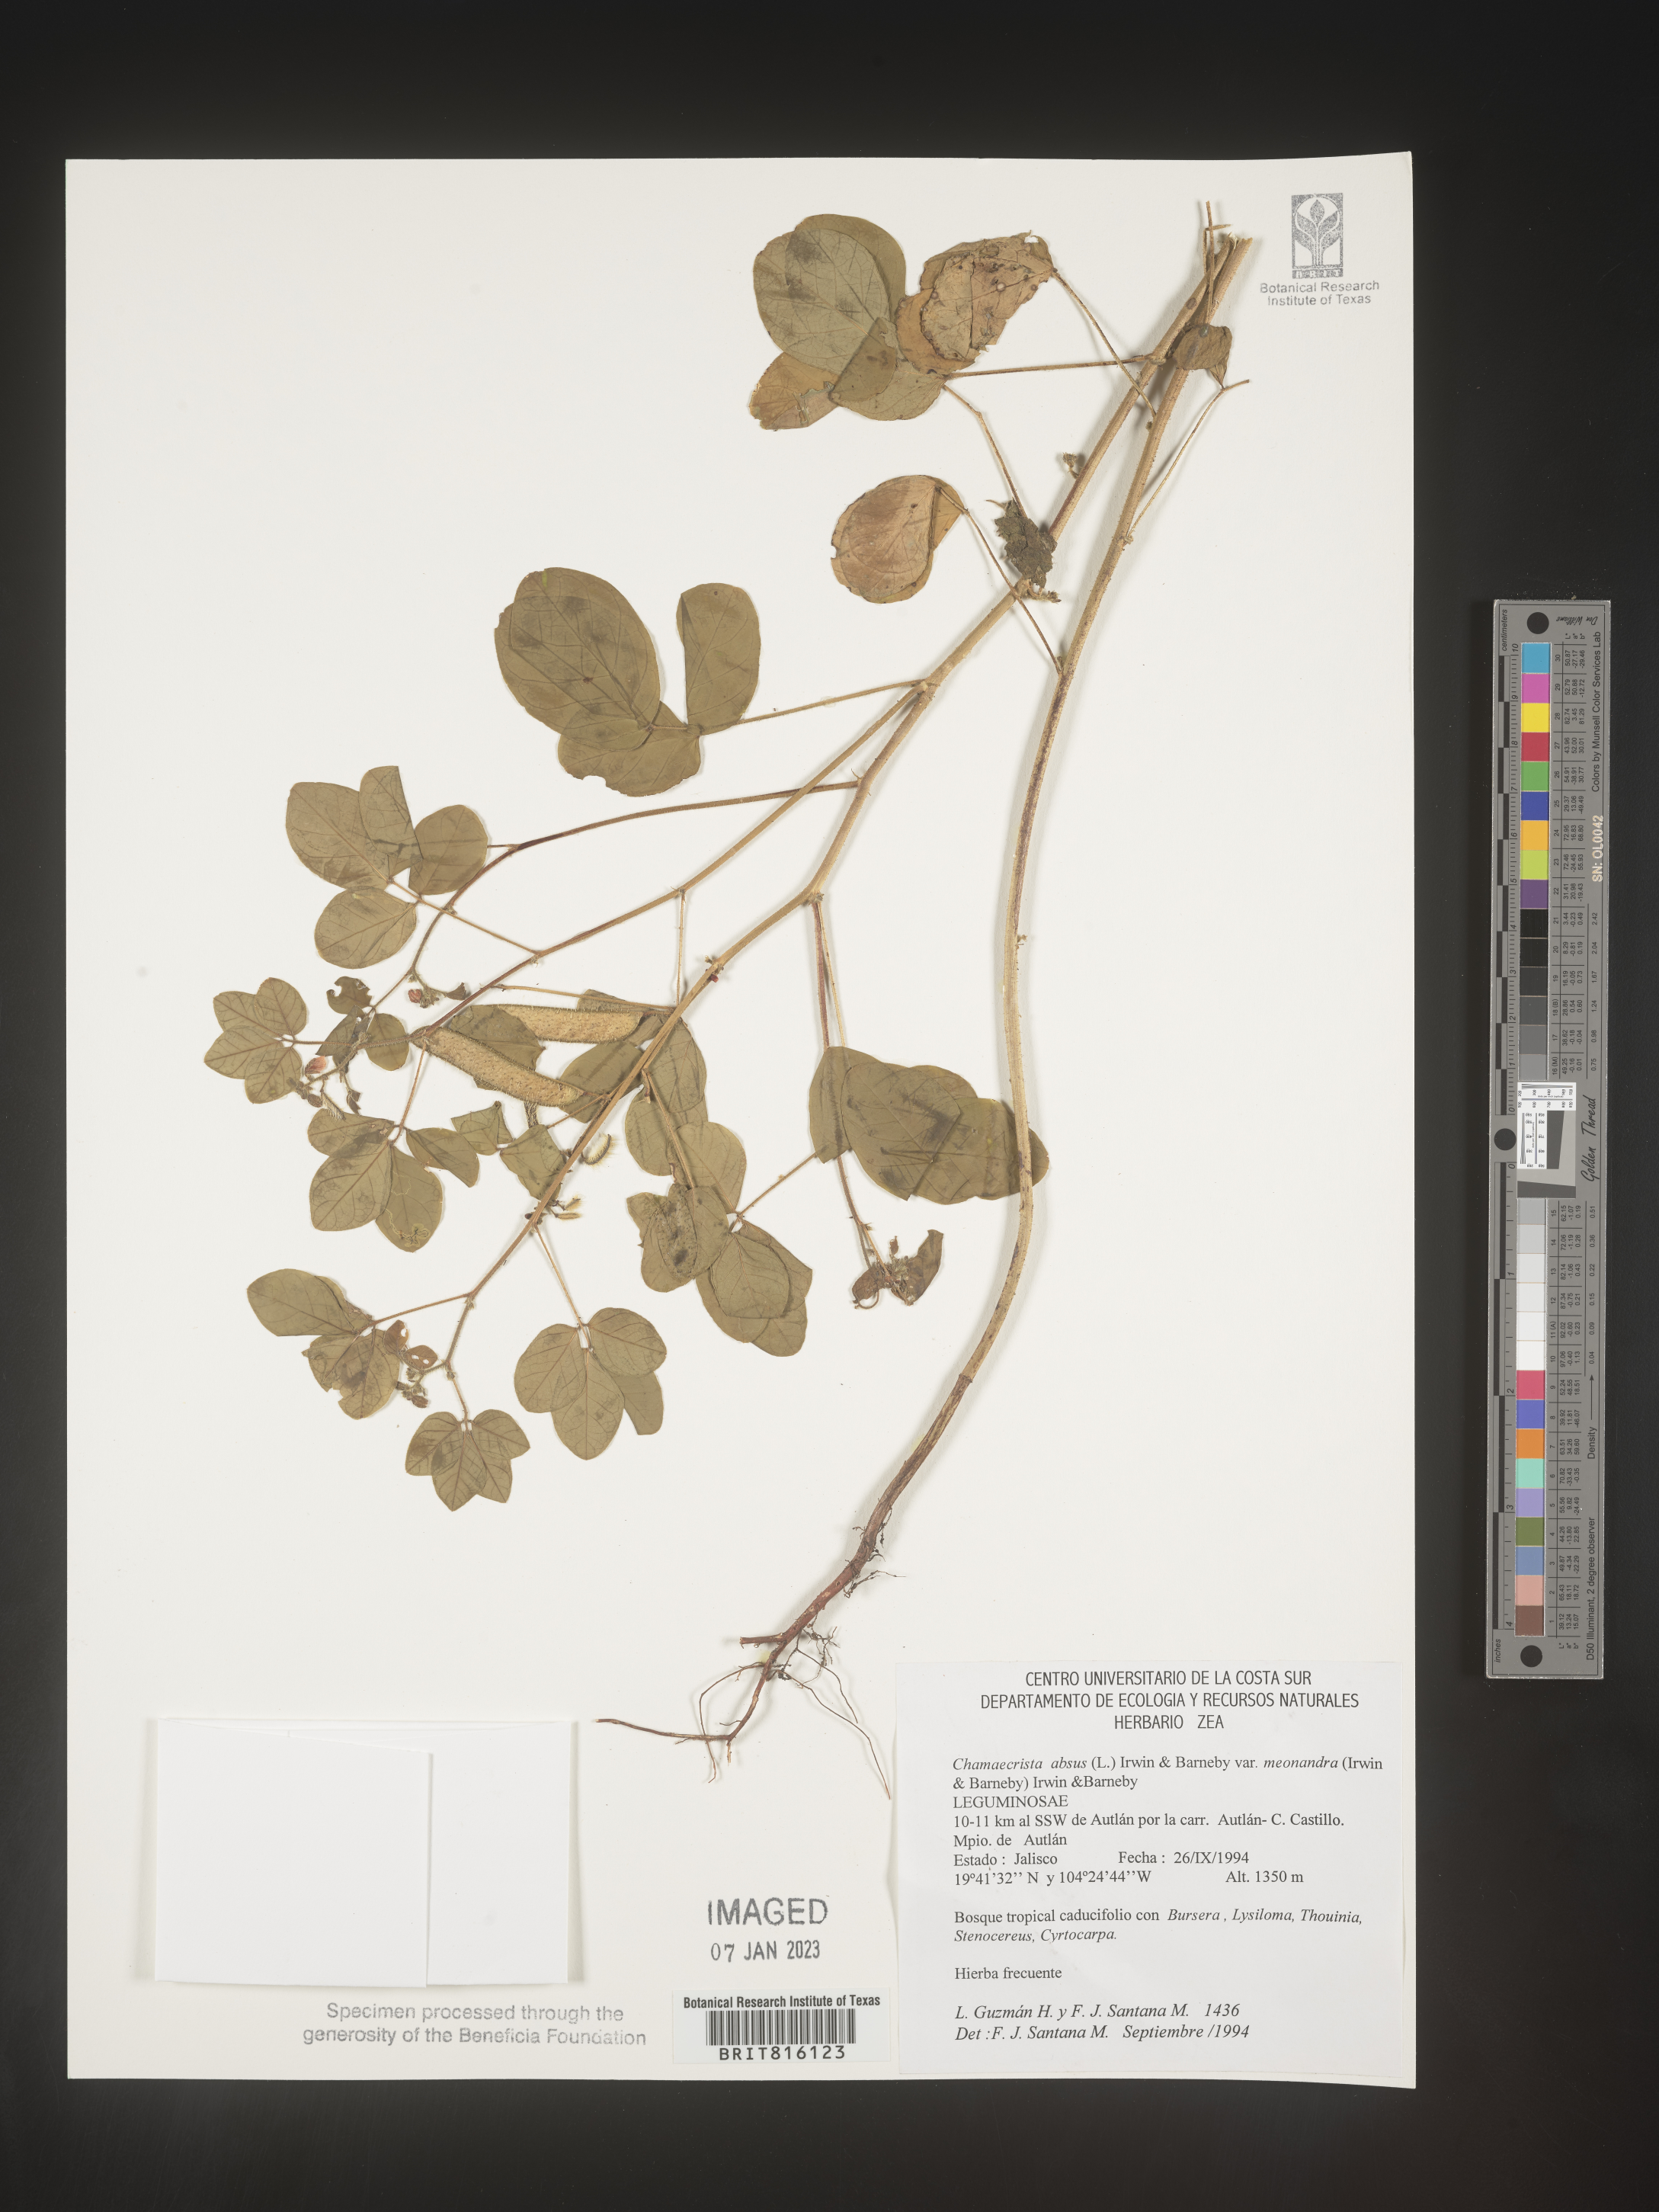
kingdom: Plantae
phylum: Tracheophyta
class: Magnoliopsida
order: Fabales
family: Fabaceae
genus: Chamaecrista
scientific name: Chamaecrista
